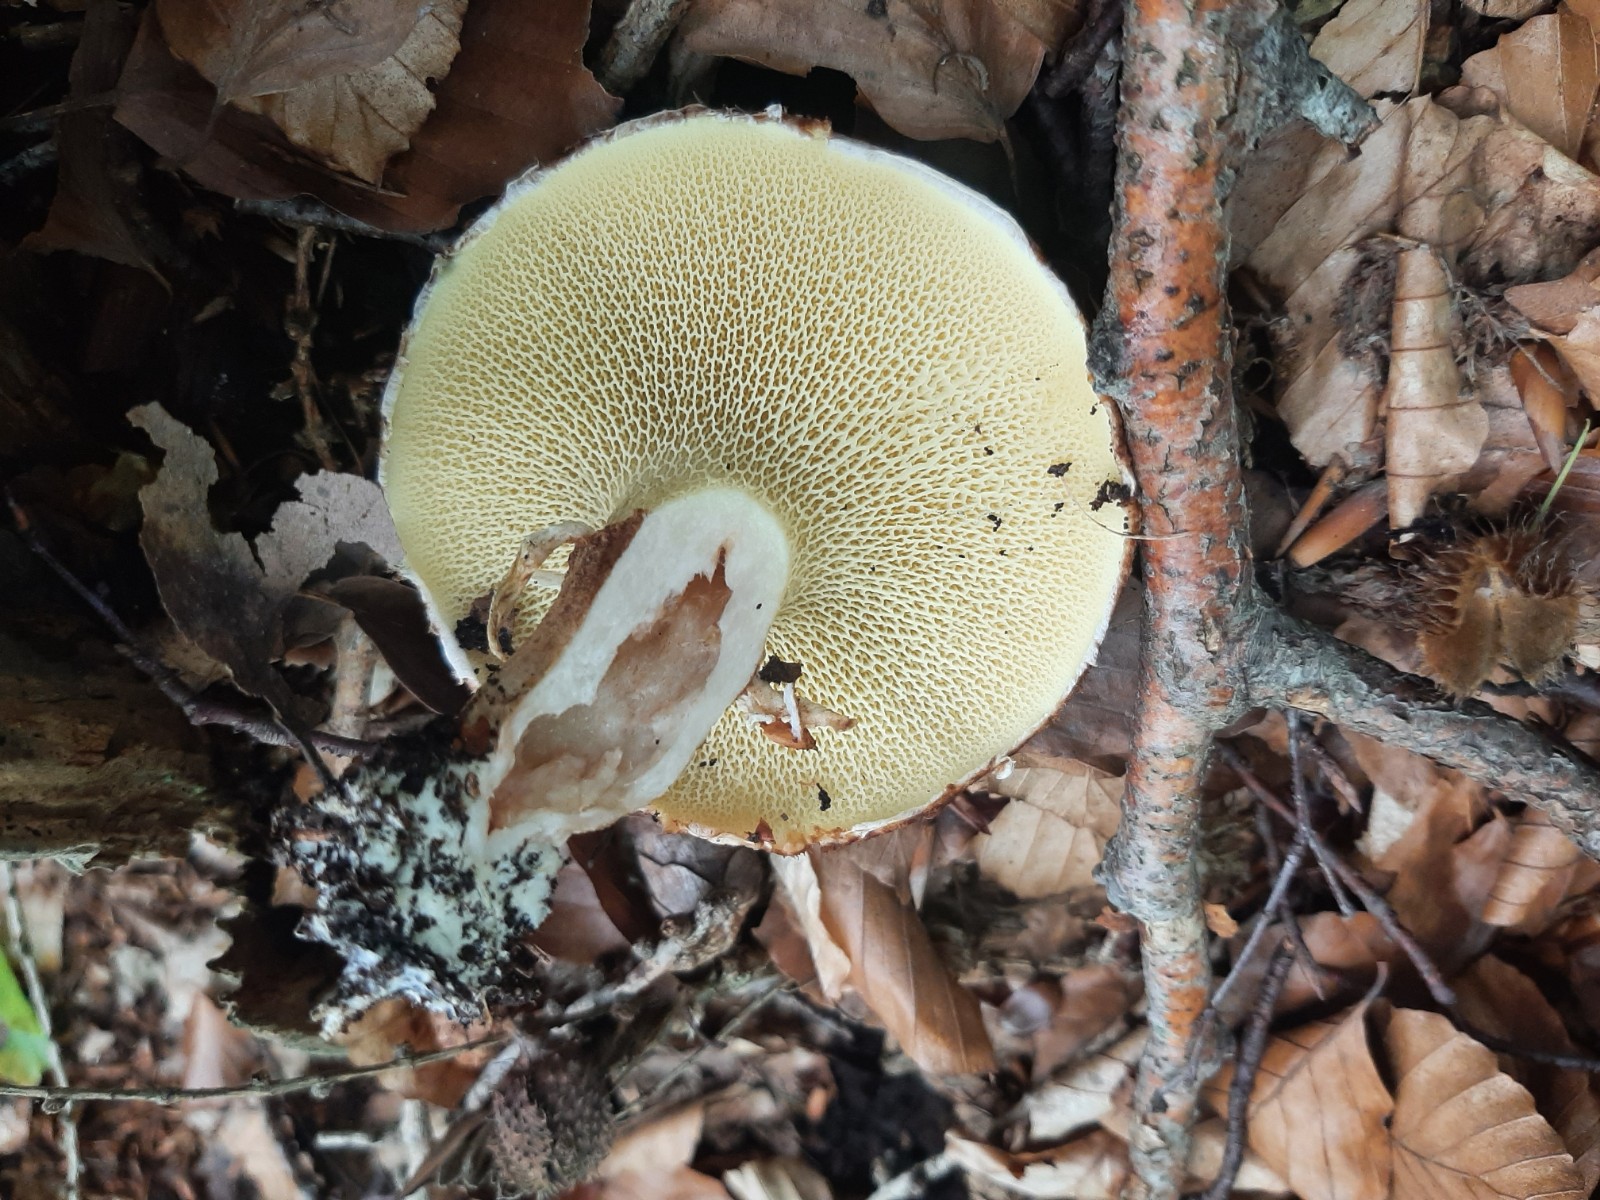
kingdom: Fungi
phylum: Basidiomycota
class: Agaricomycetes
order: Boletales
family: Suillaceae
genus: Suillus
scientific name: Suillus cavipes
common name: hulstokket slimrørhat
